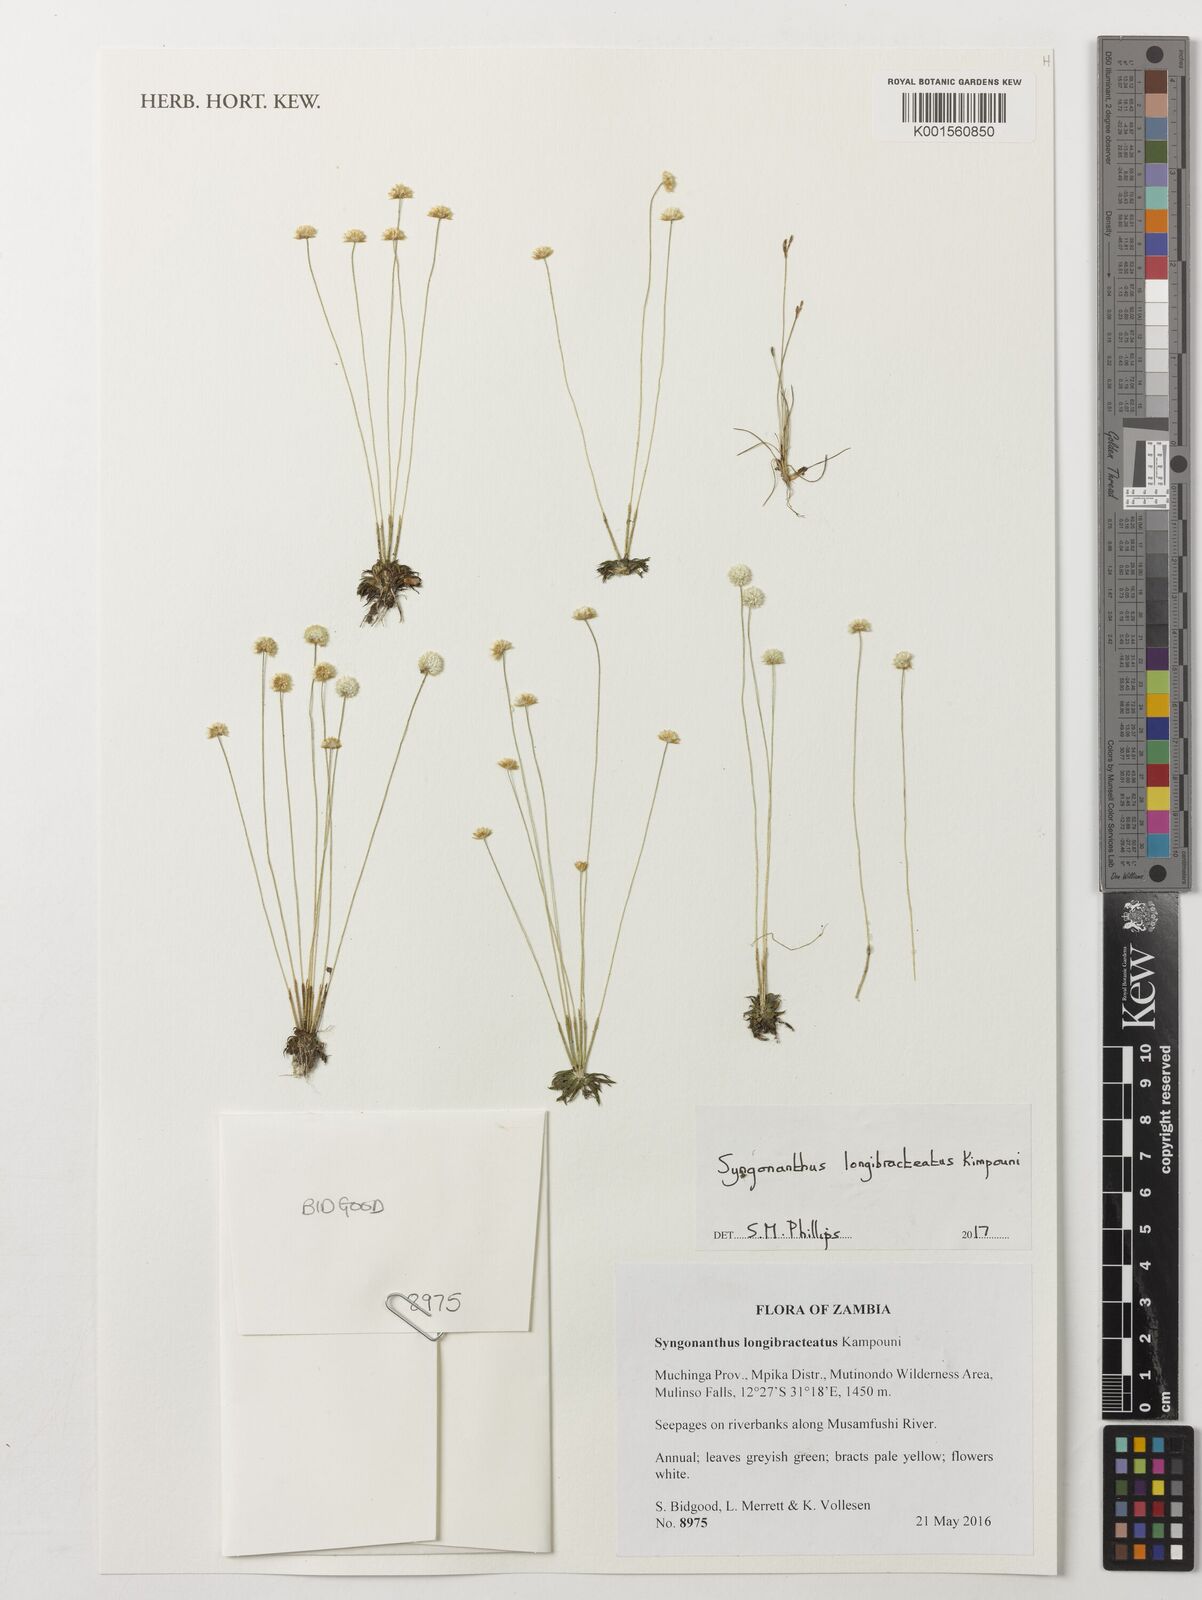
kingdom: Plantae
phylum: Tracheophyta
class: Liliopsida
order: Poales
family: Eriocaulaceae
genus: Syngonanthus
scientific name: Syngonanthus longibracteatus
